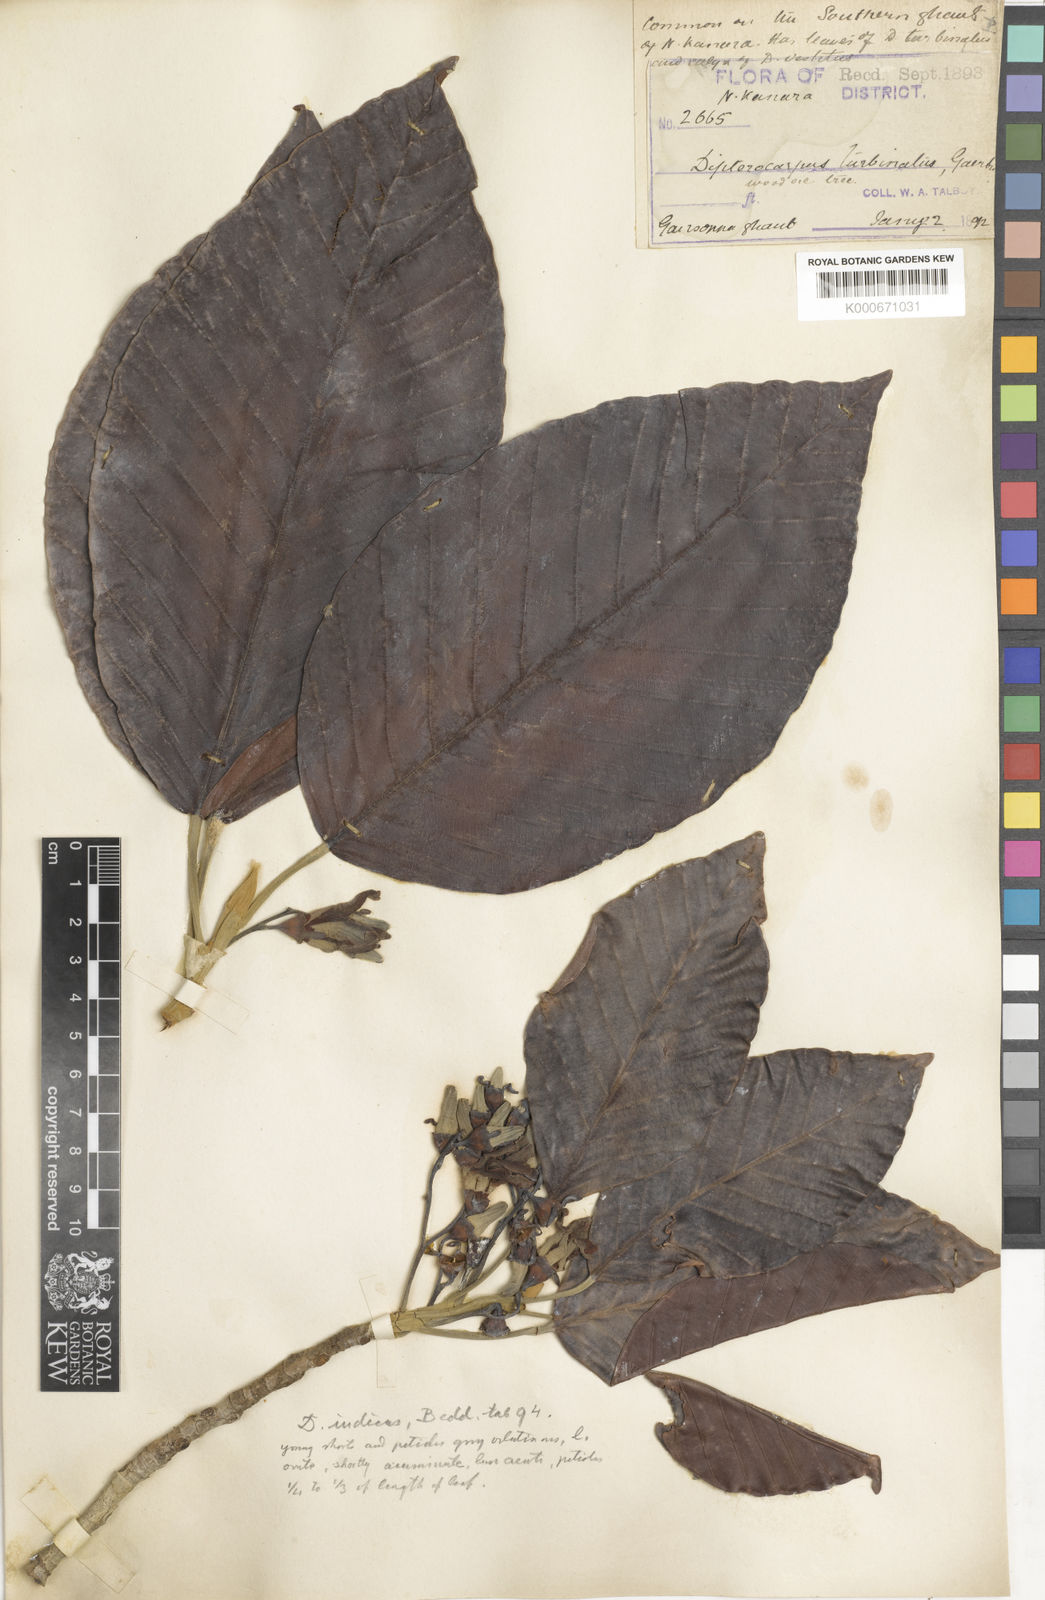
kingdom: Plantae
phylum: Tracheophyta
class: Magnoliopsida
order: Malvales
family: Dipterocarpaceae
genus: Dipterocarpus
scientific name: Dipterocarpus indicus
